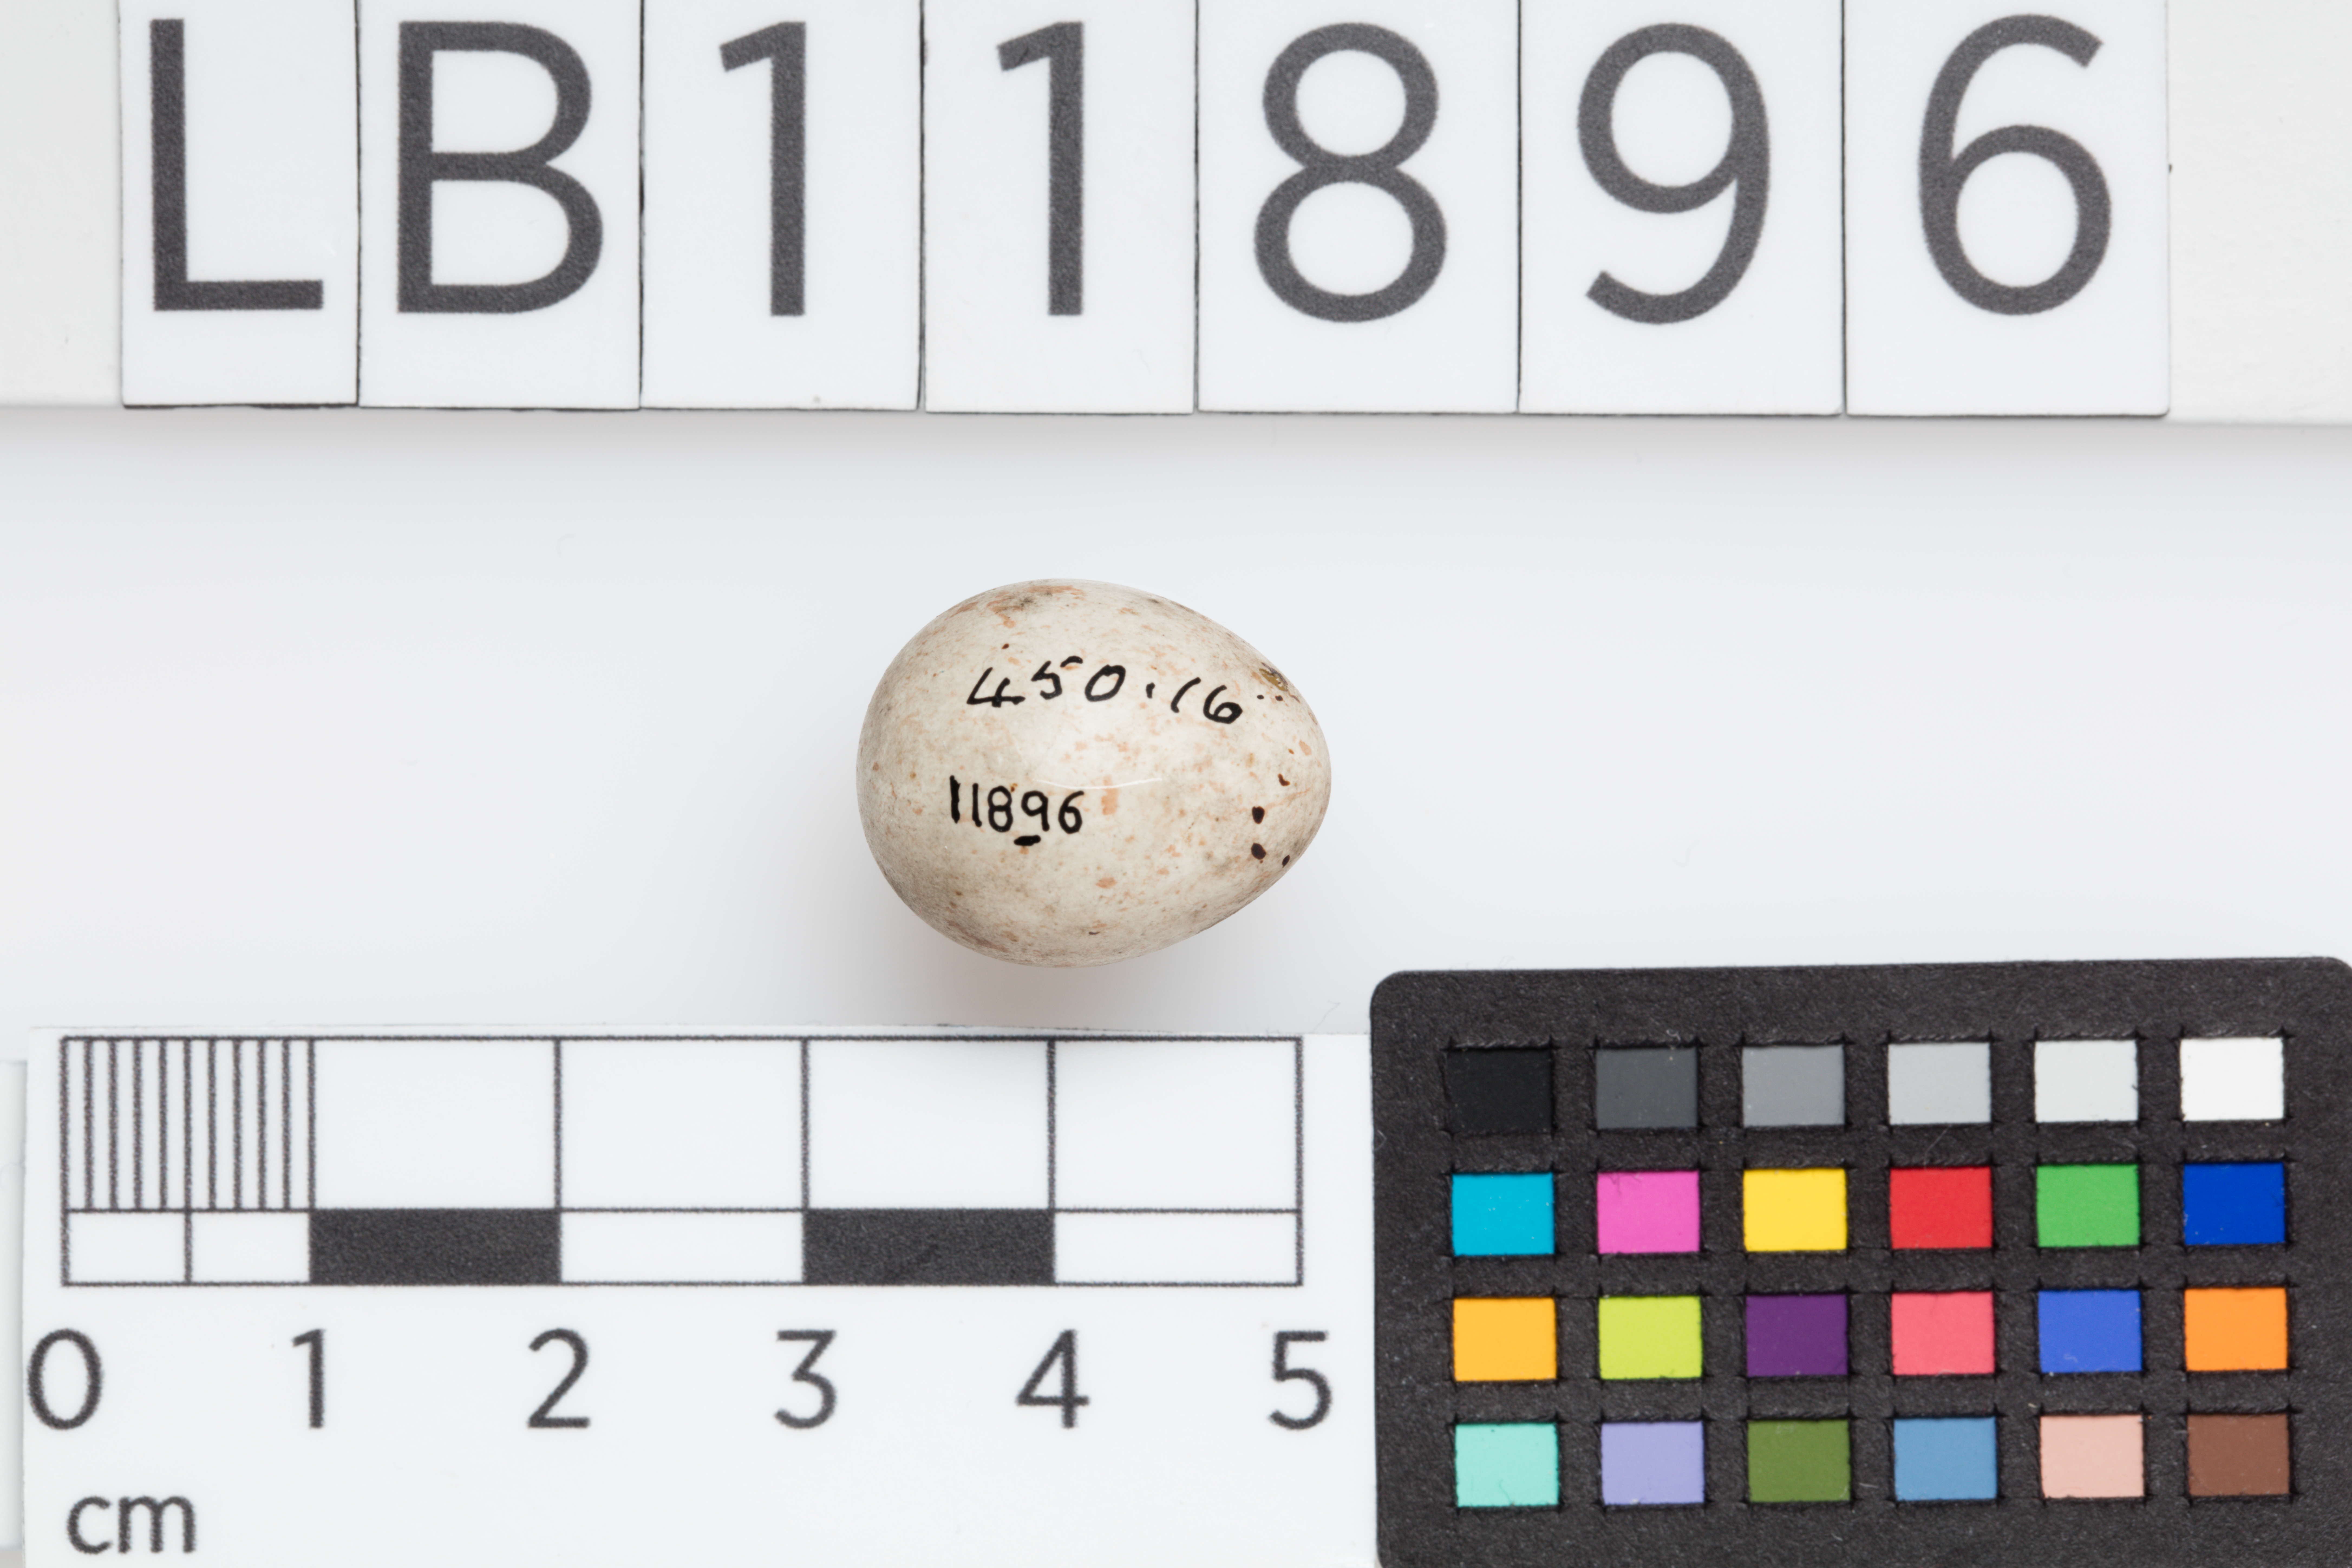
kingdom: Animalia
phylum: Chordata
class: Aves
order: Passeriformes
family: Fringillidae
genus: Linaria
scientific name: Linaria cannabina
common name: Common linnet
